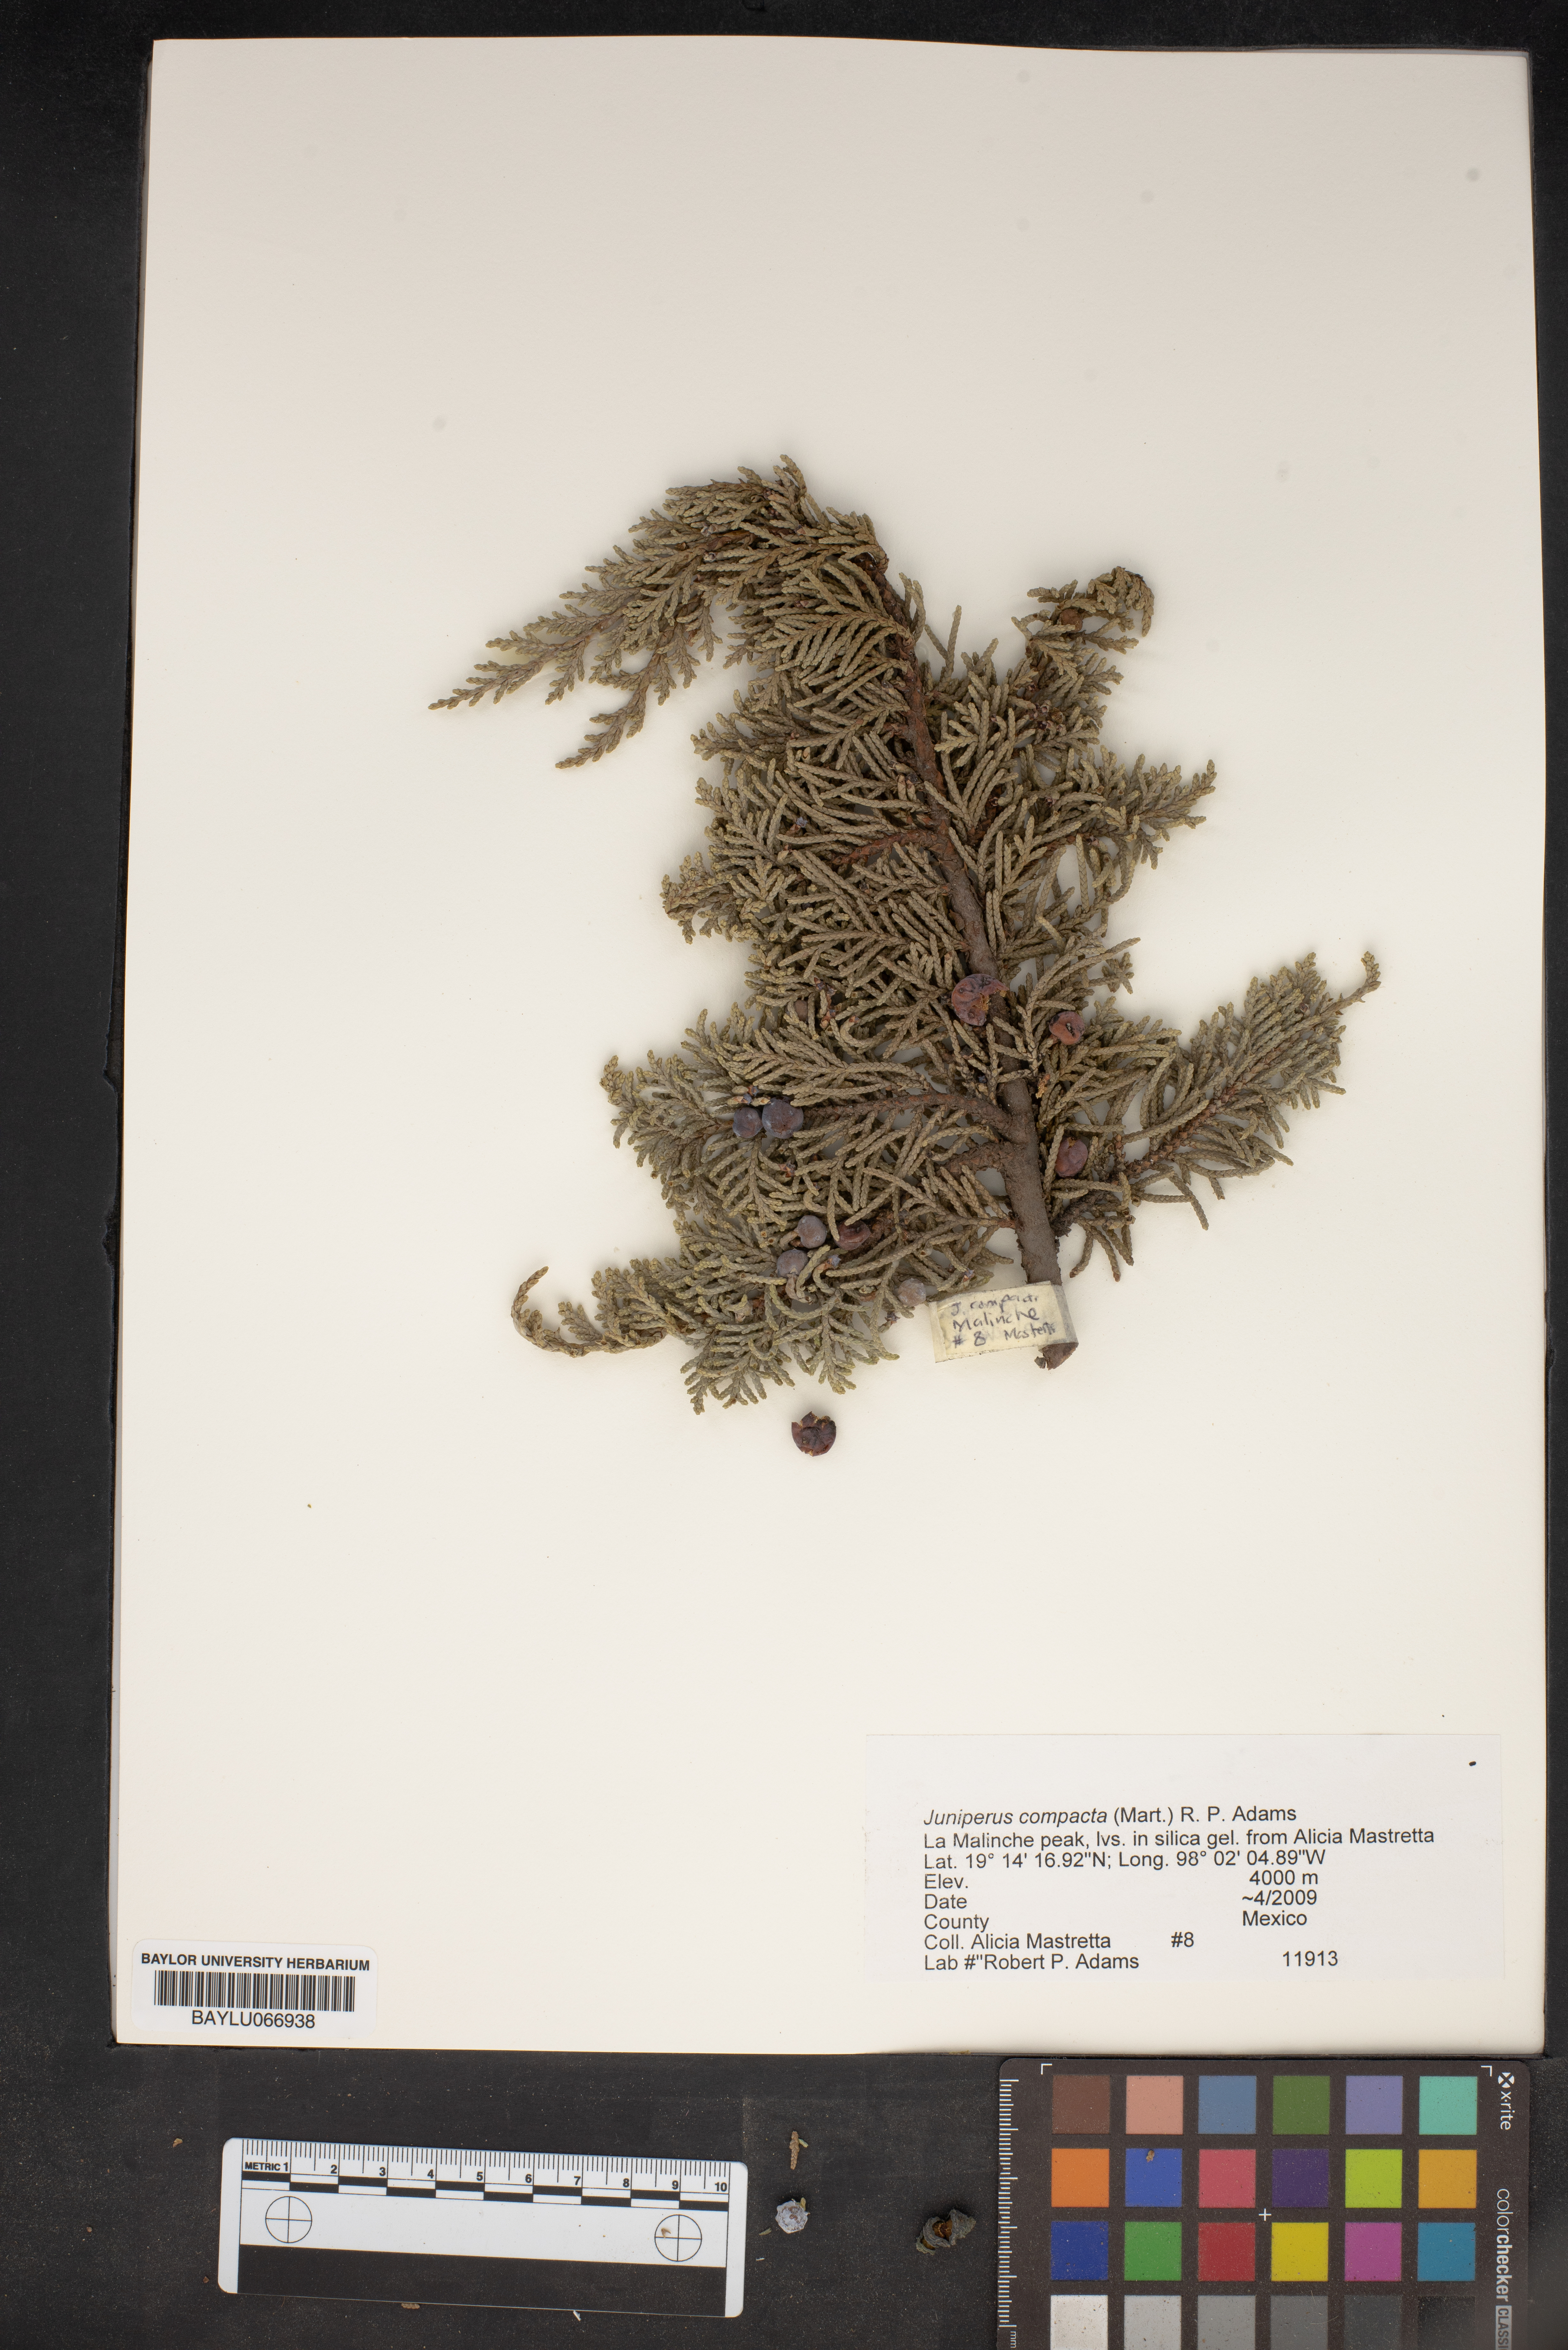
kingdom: Plantae
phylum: Tracheophyta
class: Pinopsida
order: Pinales
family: Cupressaceae
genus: Juniperus
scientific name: Juniperus monticola
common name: Mexican juniper
